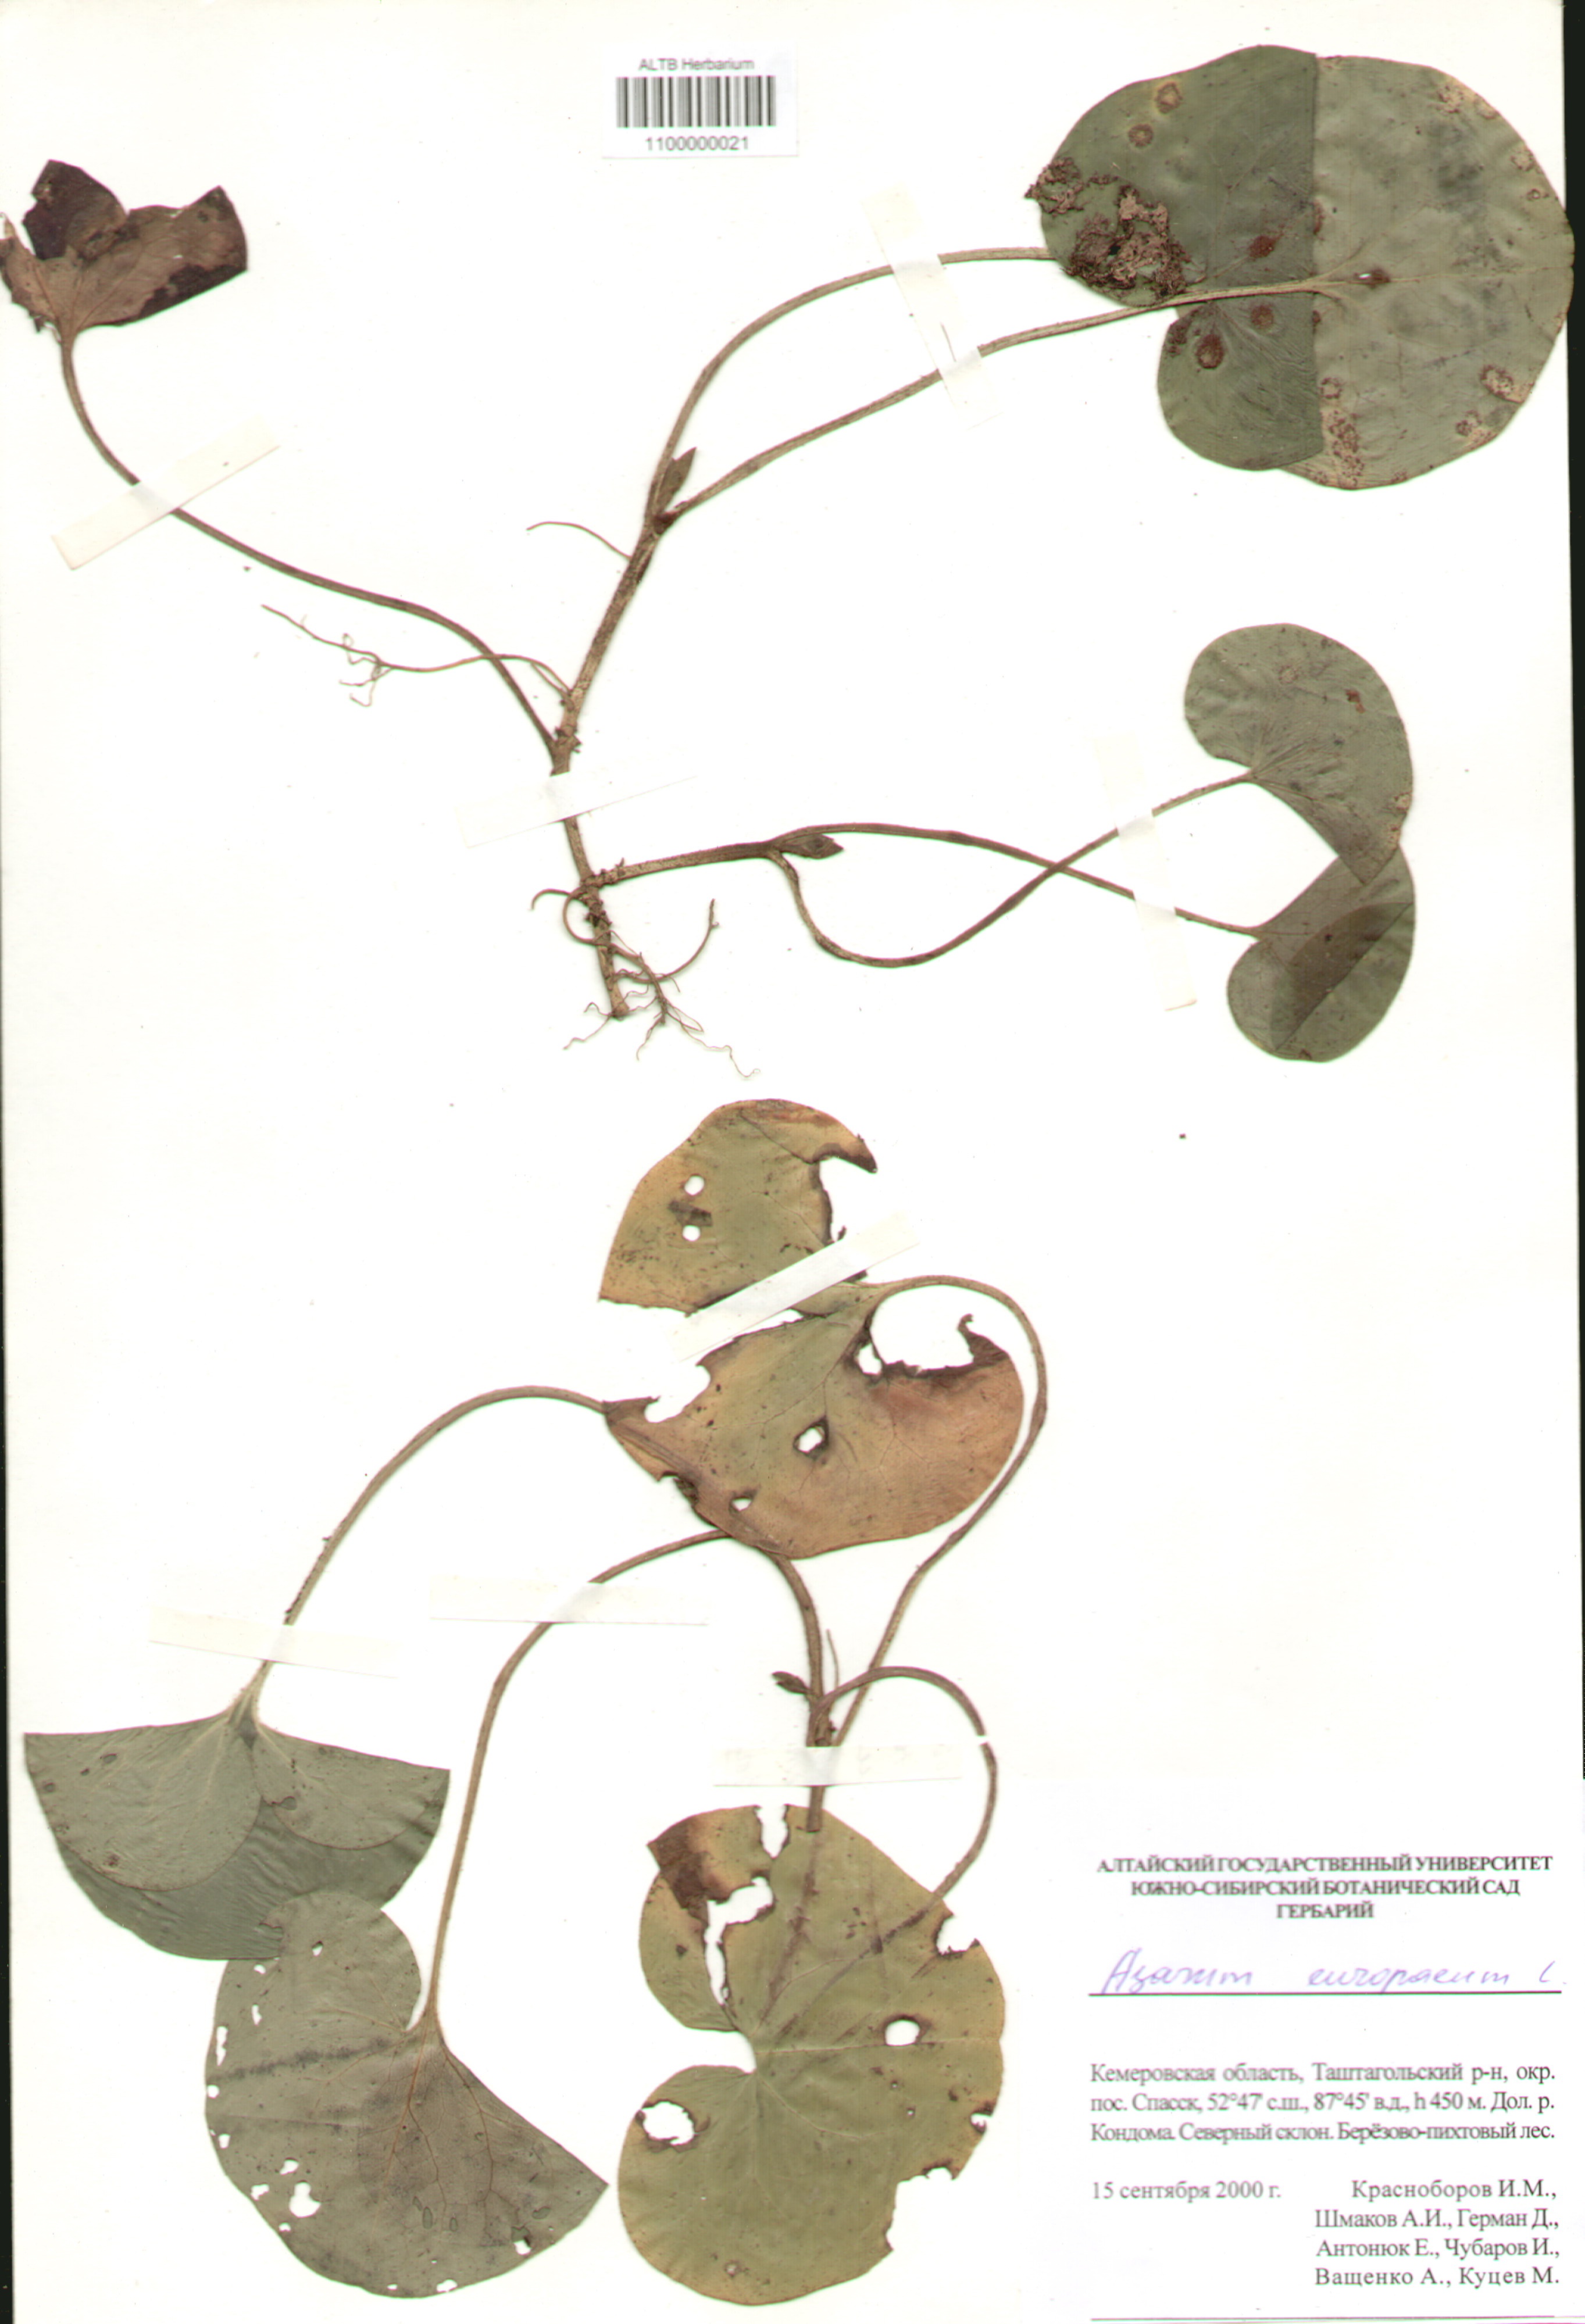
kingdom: Plantae
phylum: Tracheophyta
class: Magnoliopsida
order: Piperales
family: Aristolochiaceae
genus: Asarum
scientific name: Asarum europaeum
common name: Asarabacca
